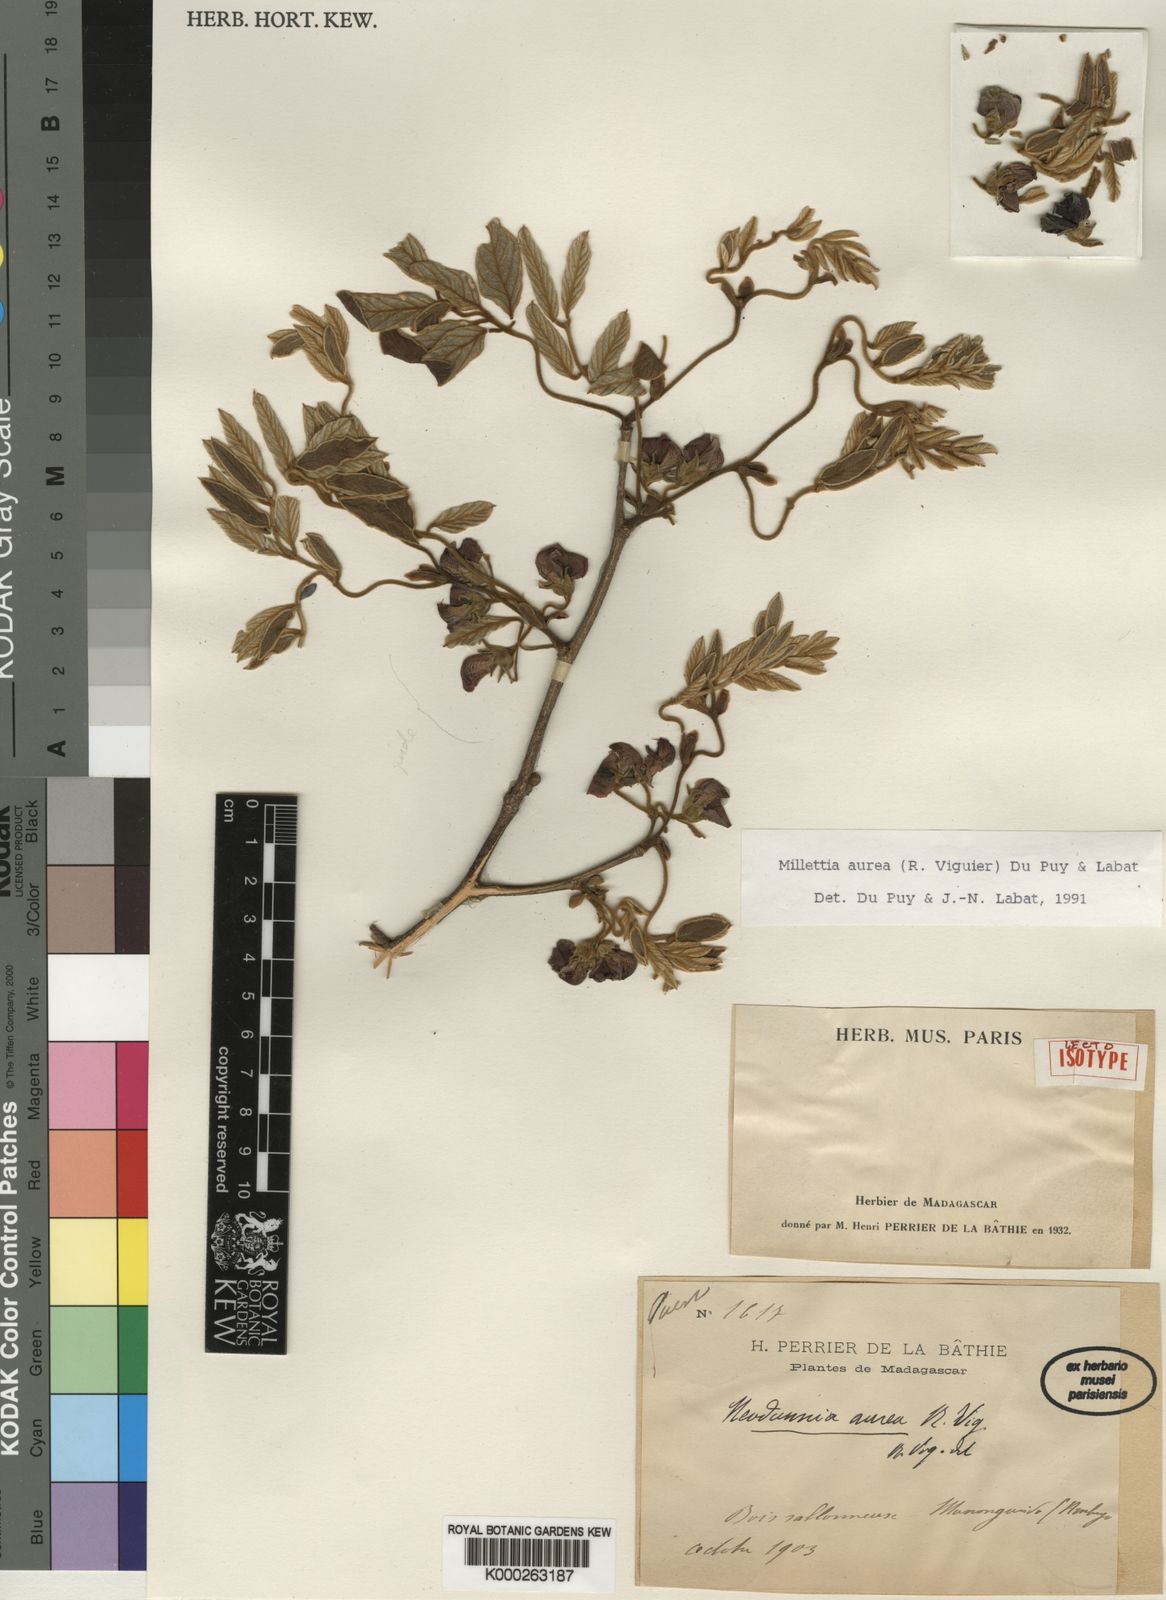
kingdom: Plantae
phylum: Tracheophyta
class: Magnoliopsida
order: Fabales
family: Fabaceae
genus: Millettia
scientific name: Millettia aurea
